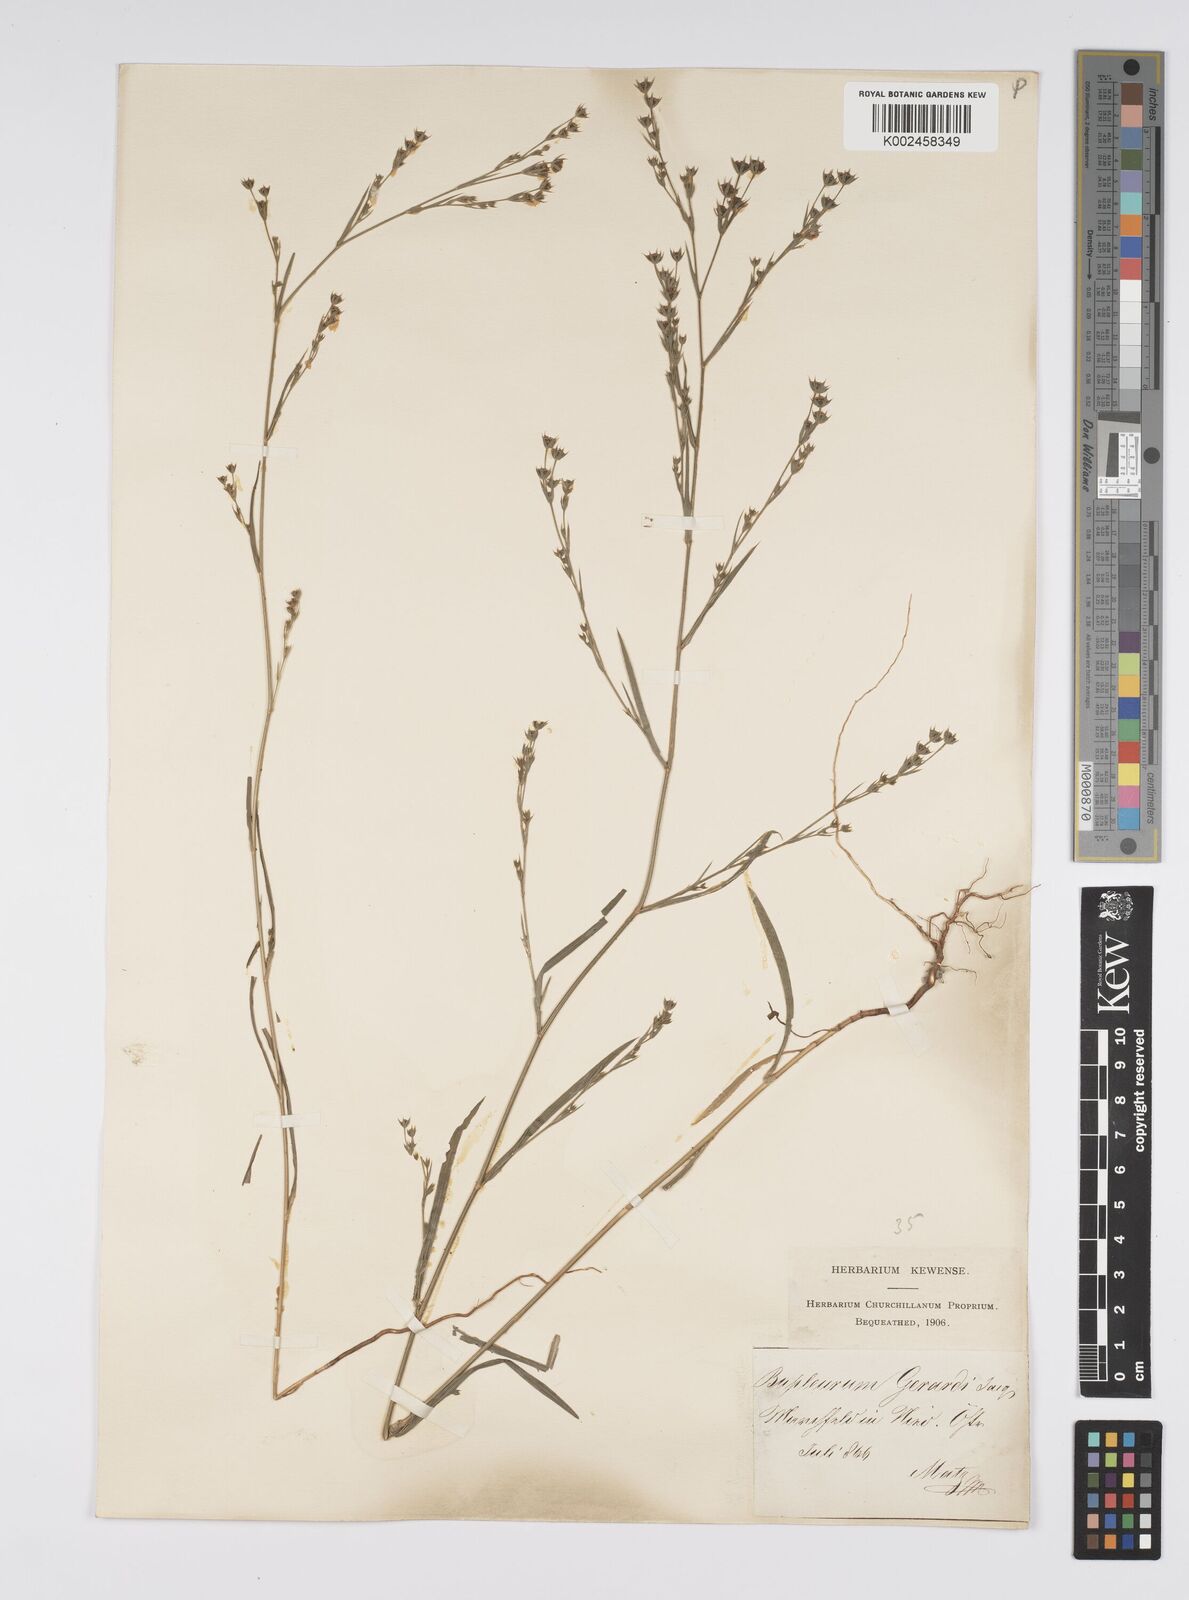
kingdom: Plantae
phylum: Tracheophyta
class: Magnoliopsida
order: Apiales
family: Apiaceae
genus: Bupleurum
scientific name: Bupleurum gerardi
